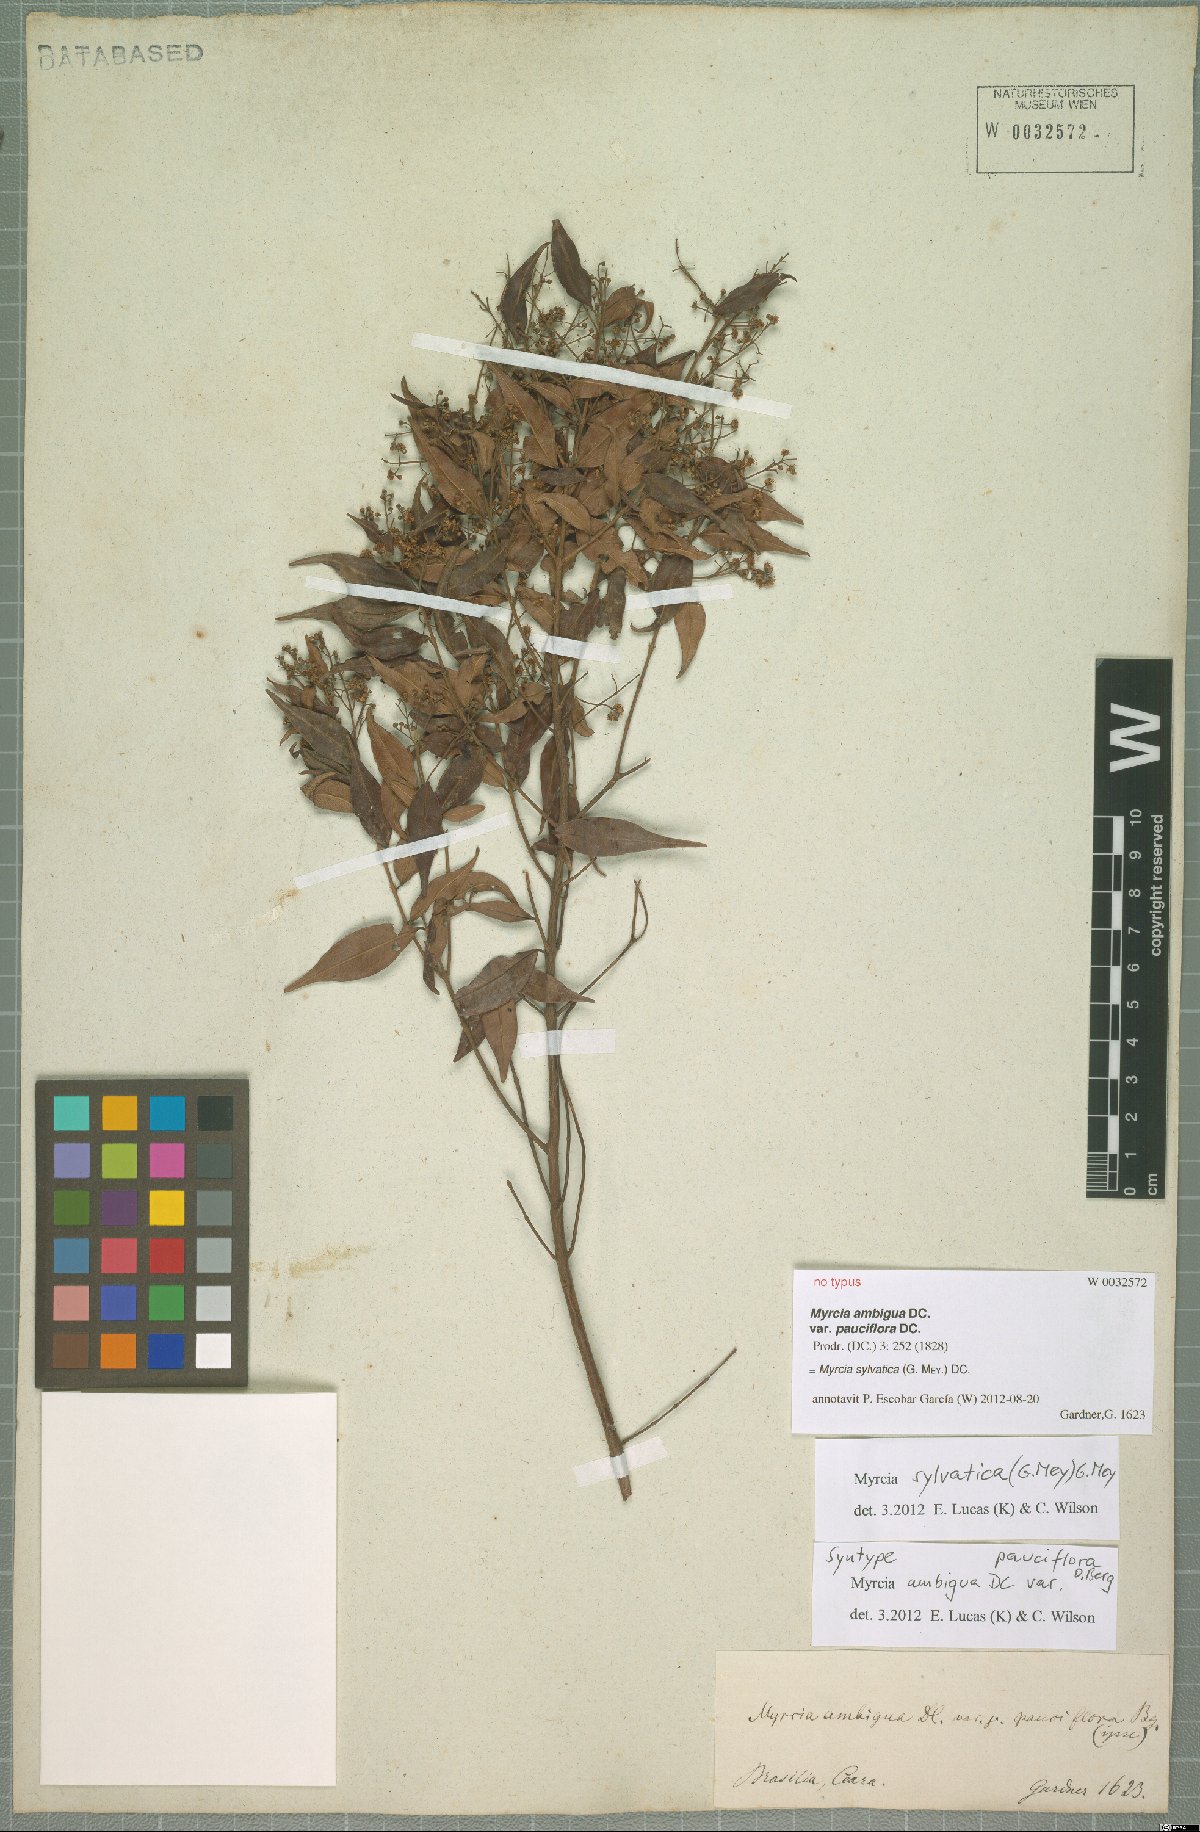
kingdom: Plantae
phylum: Tracheophyta
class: Magnoliopsida
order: Myrtales
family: Myrtaceae
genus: Myrcia
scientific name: Myrcia sylvatica
